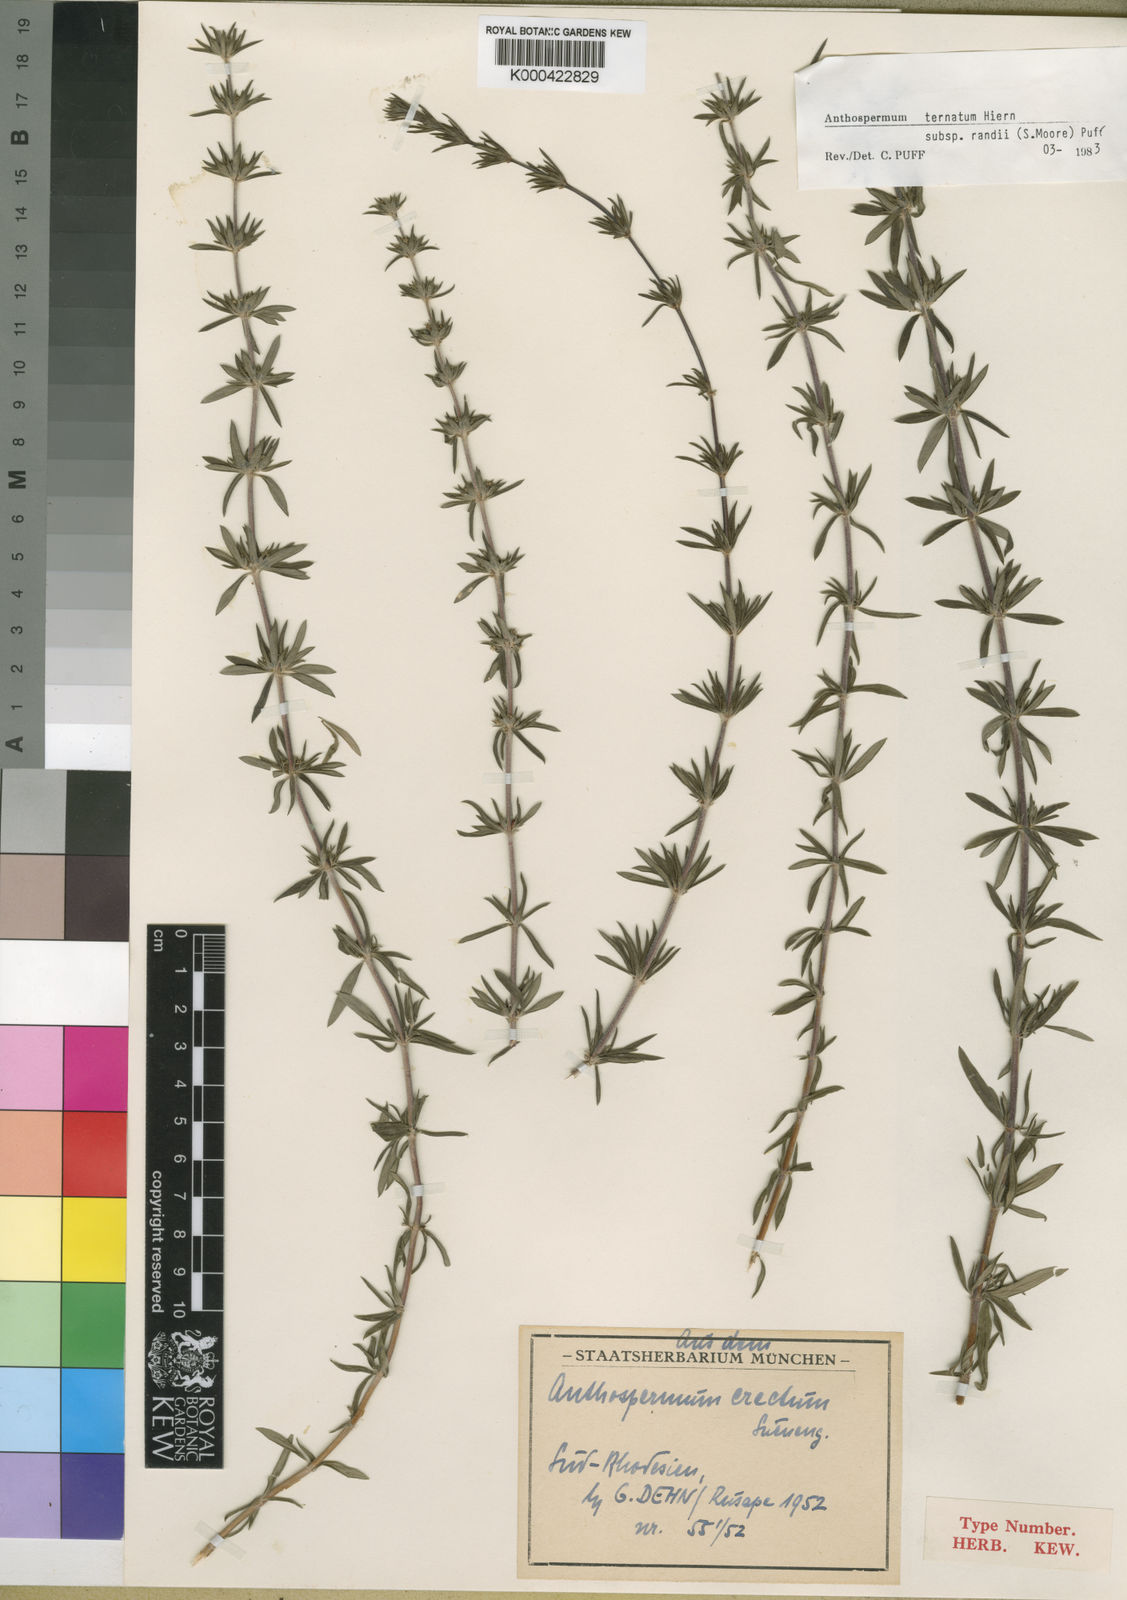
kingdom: Plantae
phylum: Tracheophyta
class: Magnoliopsida
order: Gentianales
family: Rubiaceae
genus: Anthospermum
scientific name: Anthospermum ternatum
